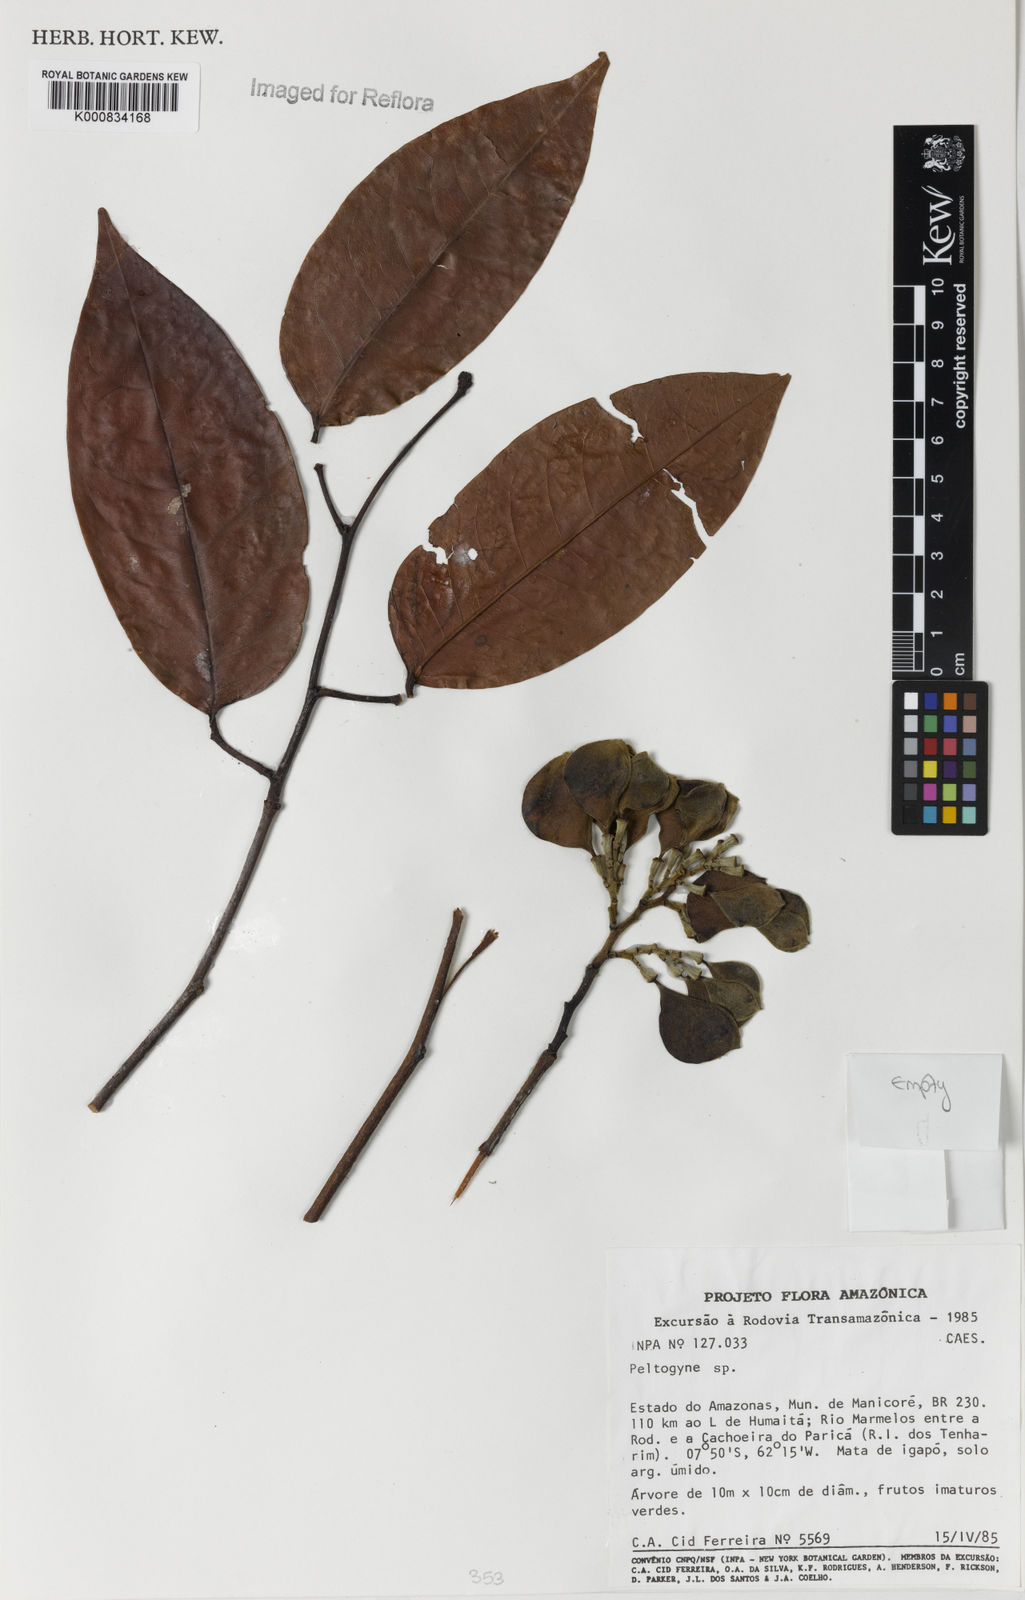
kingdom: Plantae
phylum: Tracheophyta
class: Magnoliopsida
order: Fabales
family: Fabaceae
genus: Peltogyne
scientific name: Peltogyne
